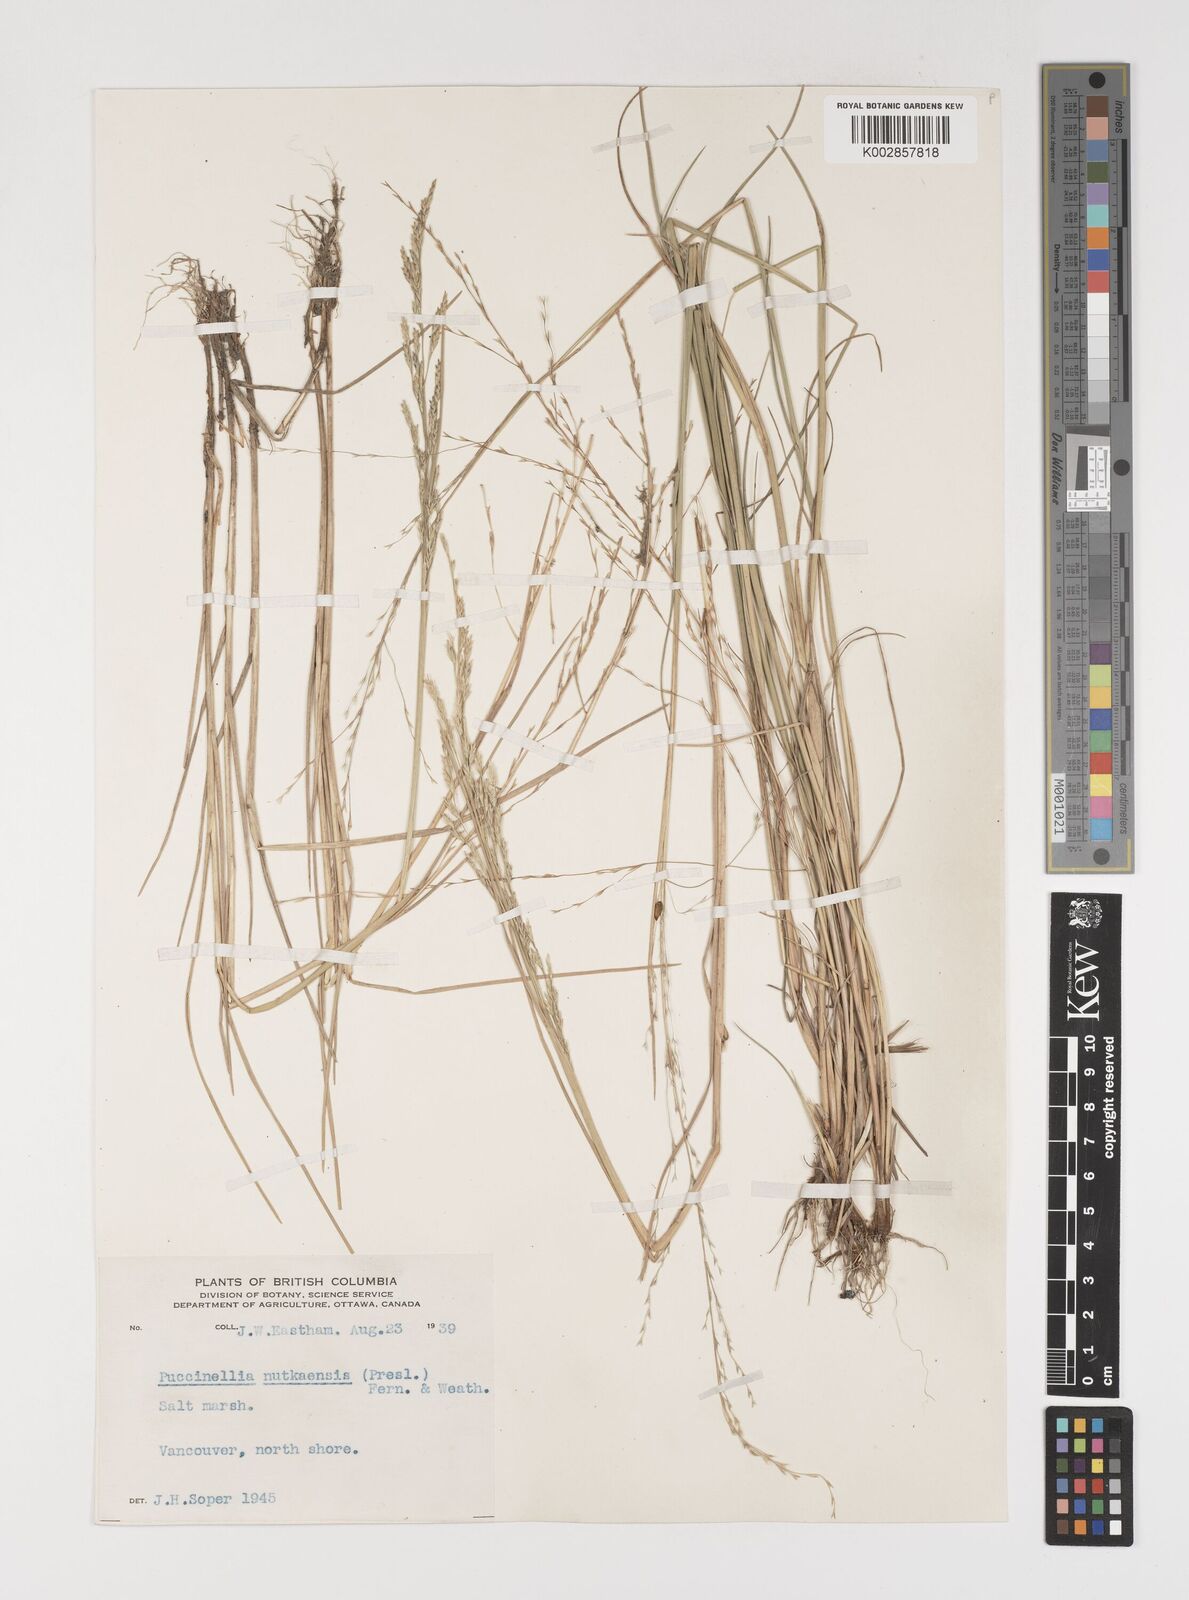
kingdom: Plantae
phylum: Tracheophyta
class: Liliopsida
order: Poales
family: Poaceae
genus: Puccinellia
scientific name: Puccinellia nutkaensis
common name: Nootka alkaligrass
